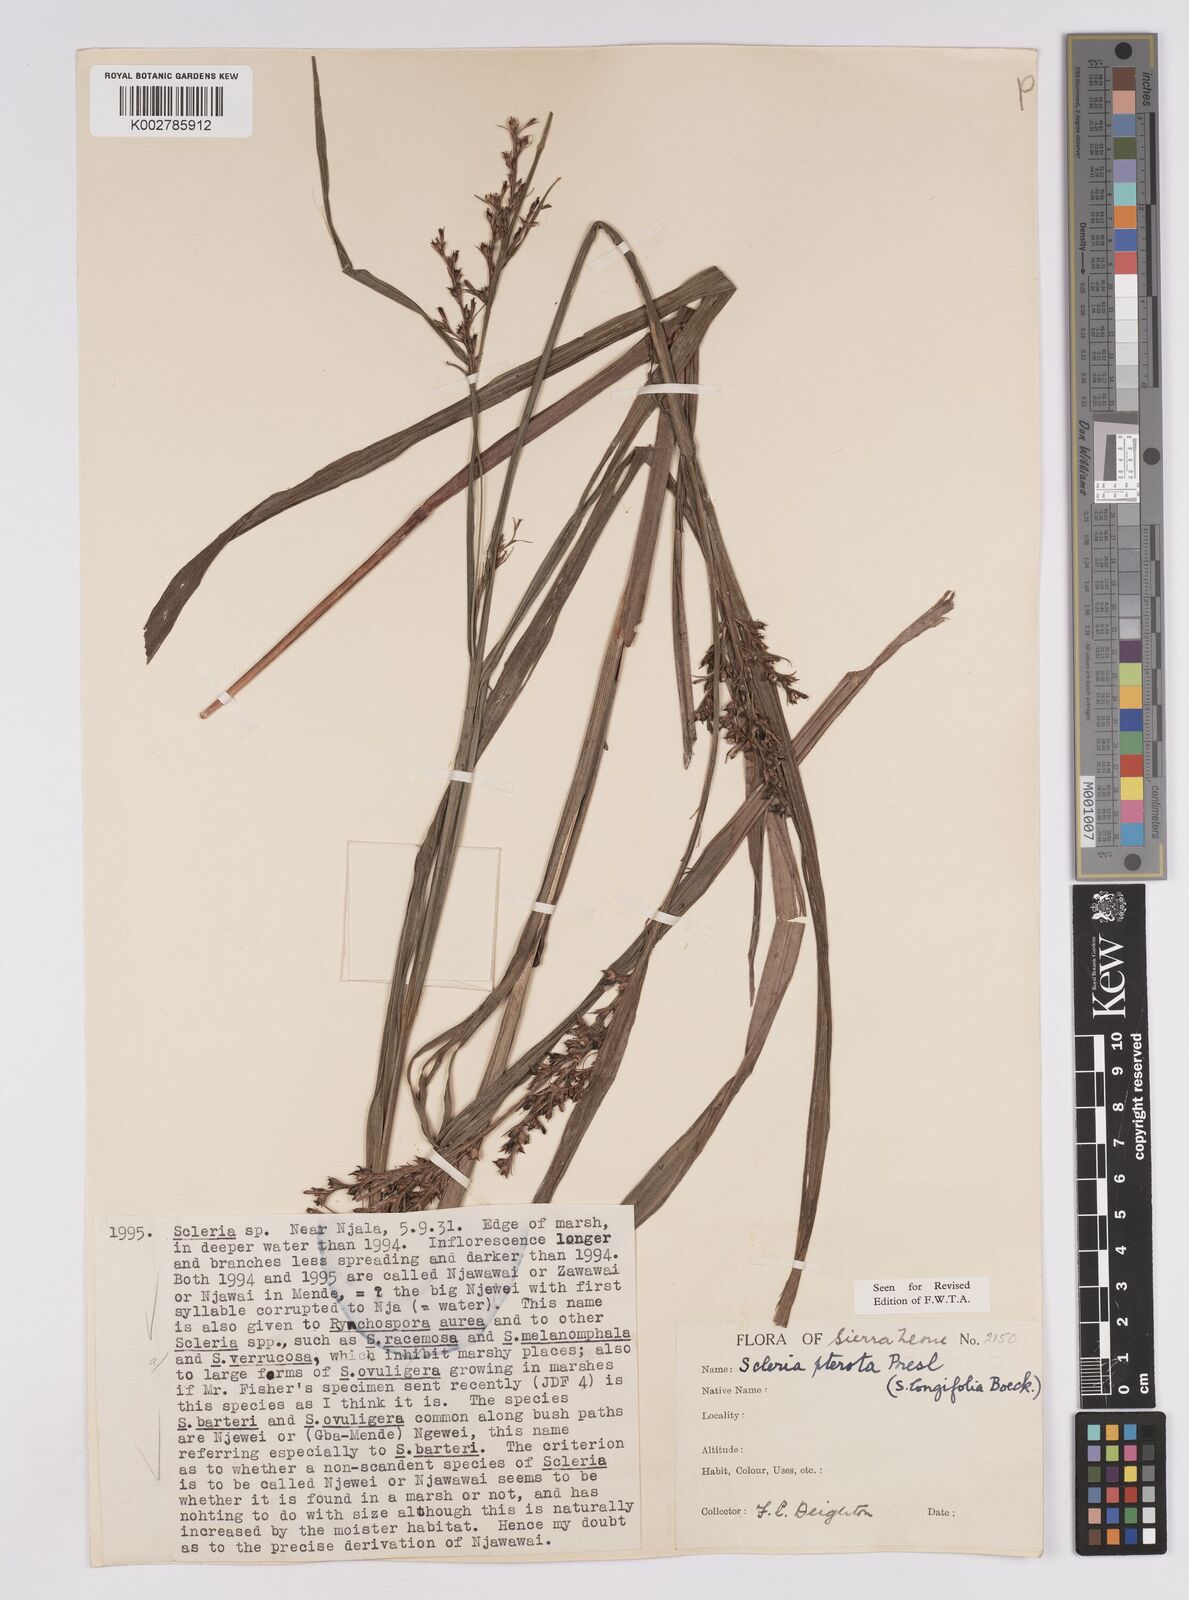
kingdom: Plantae
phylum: Tracheophyta
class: Liliopsida
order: Poales
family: Cyperaceae
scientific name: Cyperaceae
